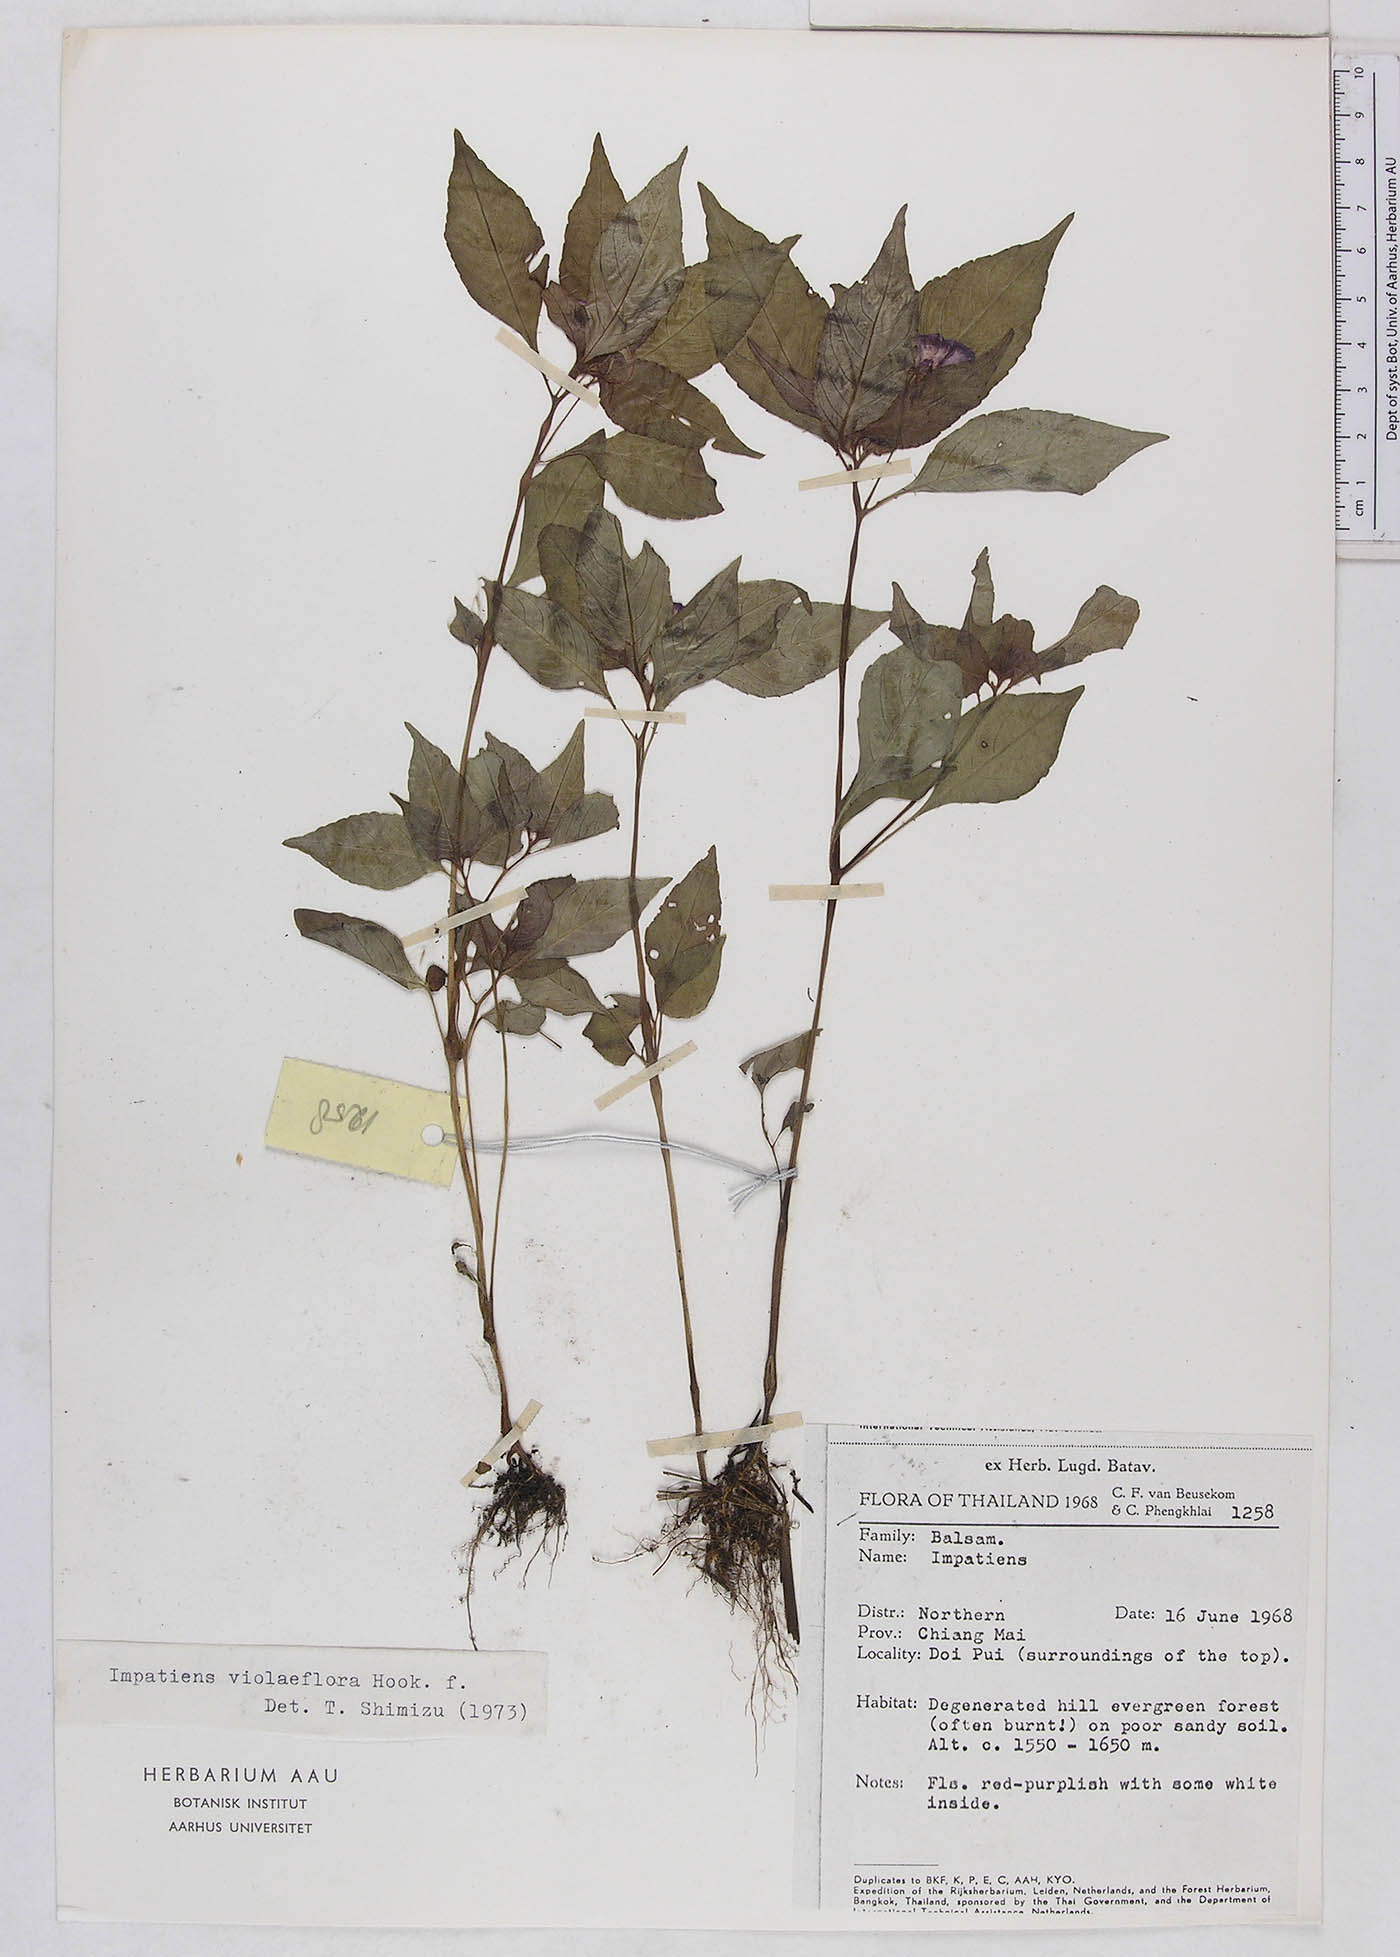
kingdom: Plantae
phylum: Tracheophyta
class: Magnoliopsida
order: Ericales
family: Balsaminaceae
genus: Impatiens
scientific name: Impatiens santisukii
